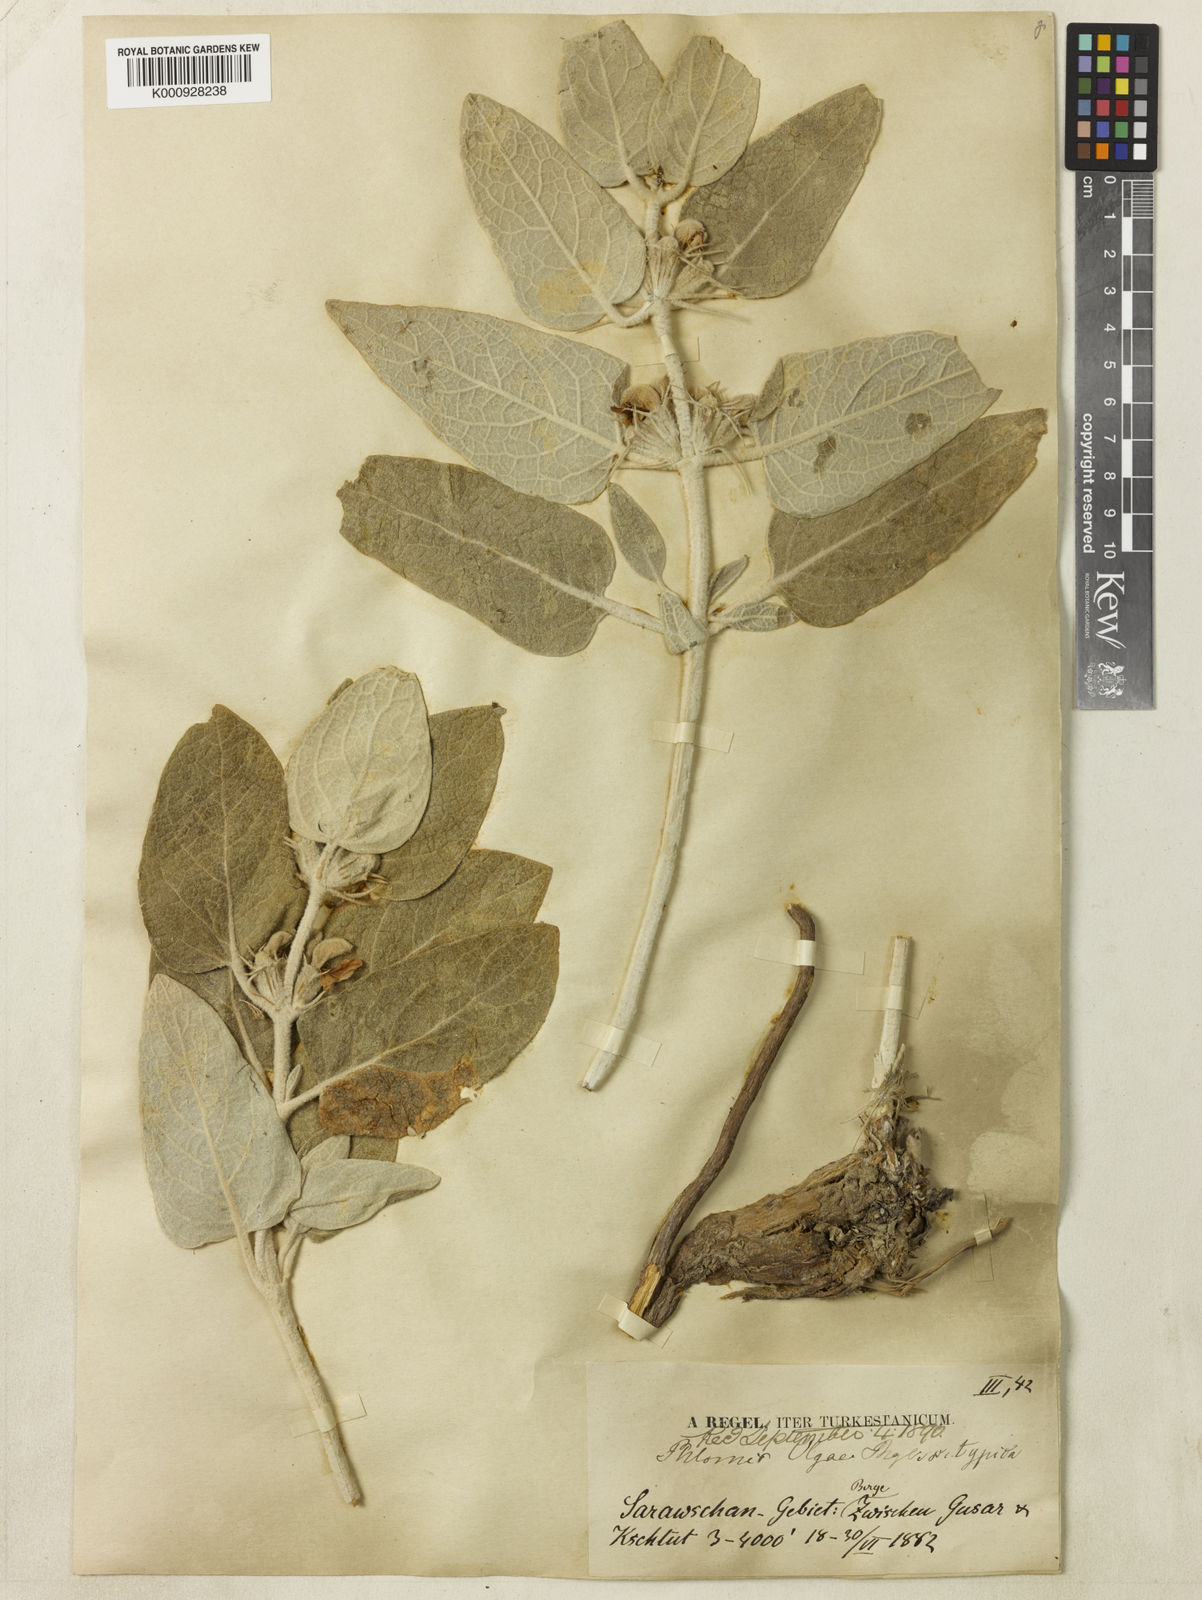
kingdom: Plantae
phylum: Tracheophyta
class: Magnoliopsida
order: Lamiales
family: Lamiaceae
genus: Phlomis
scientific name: Phlomis olgae
